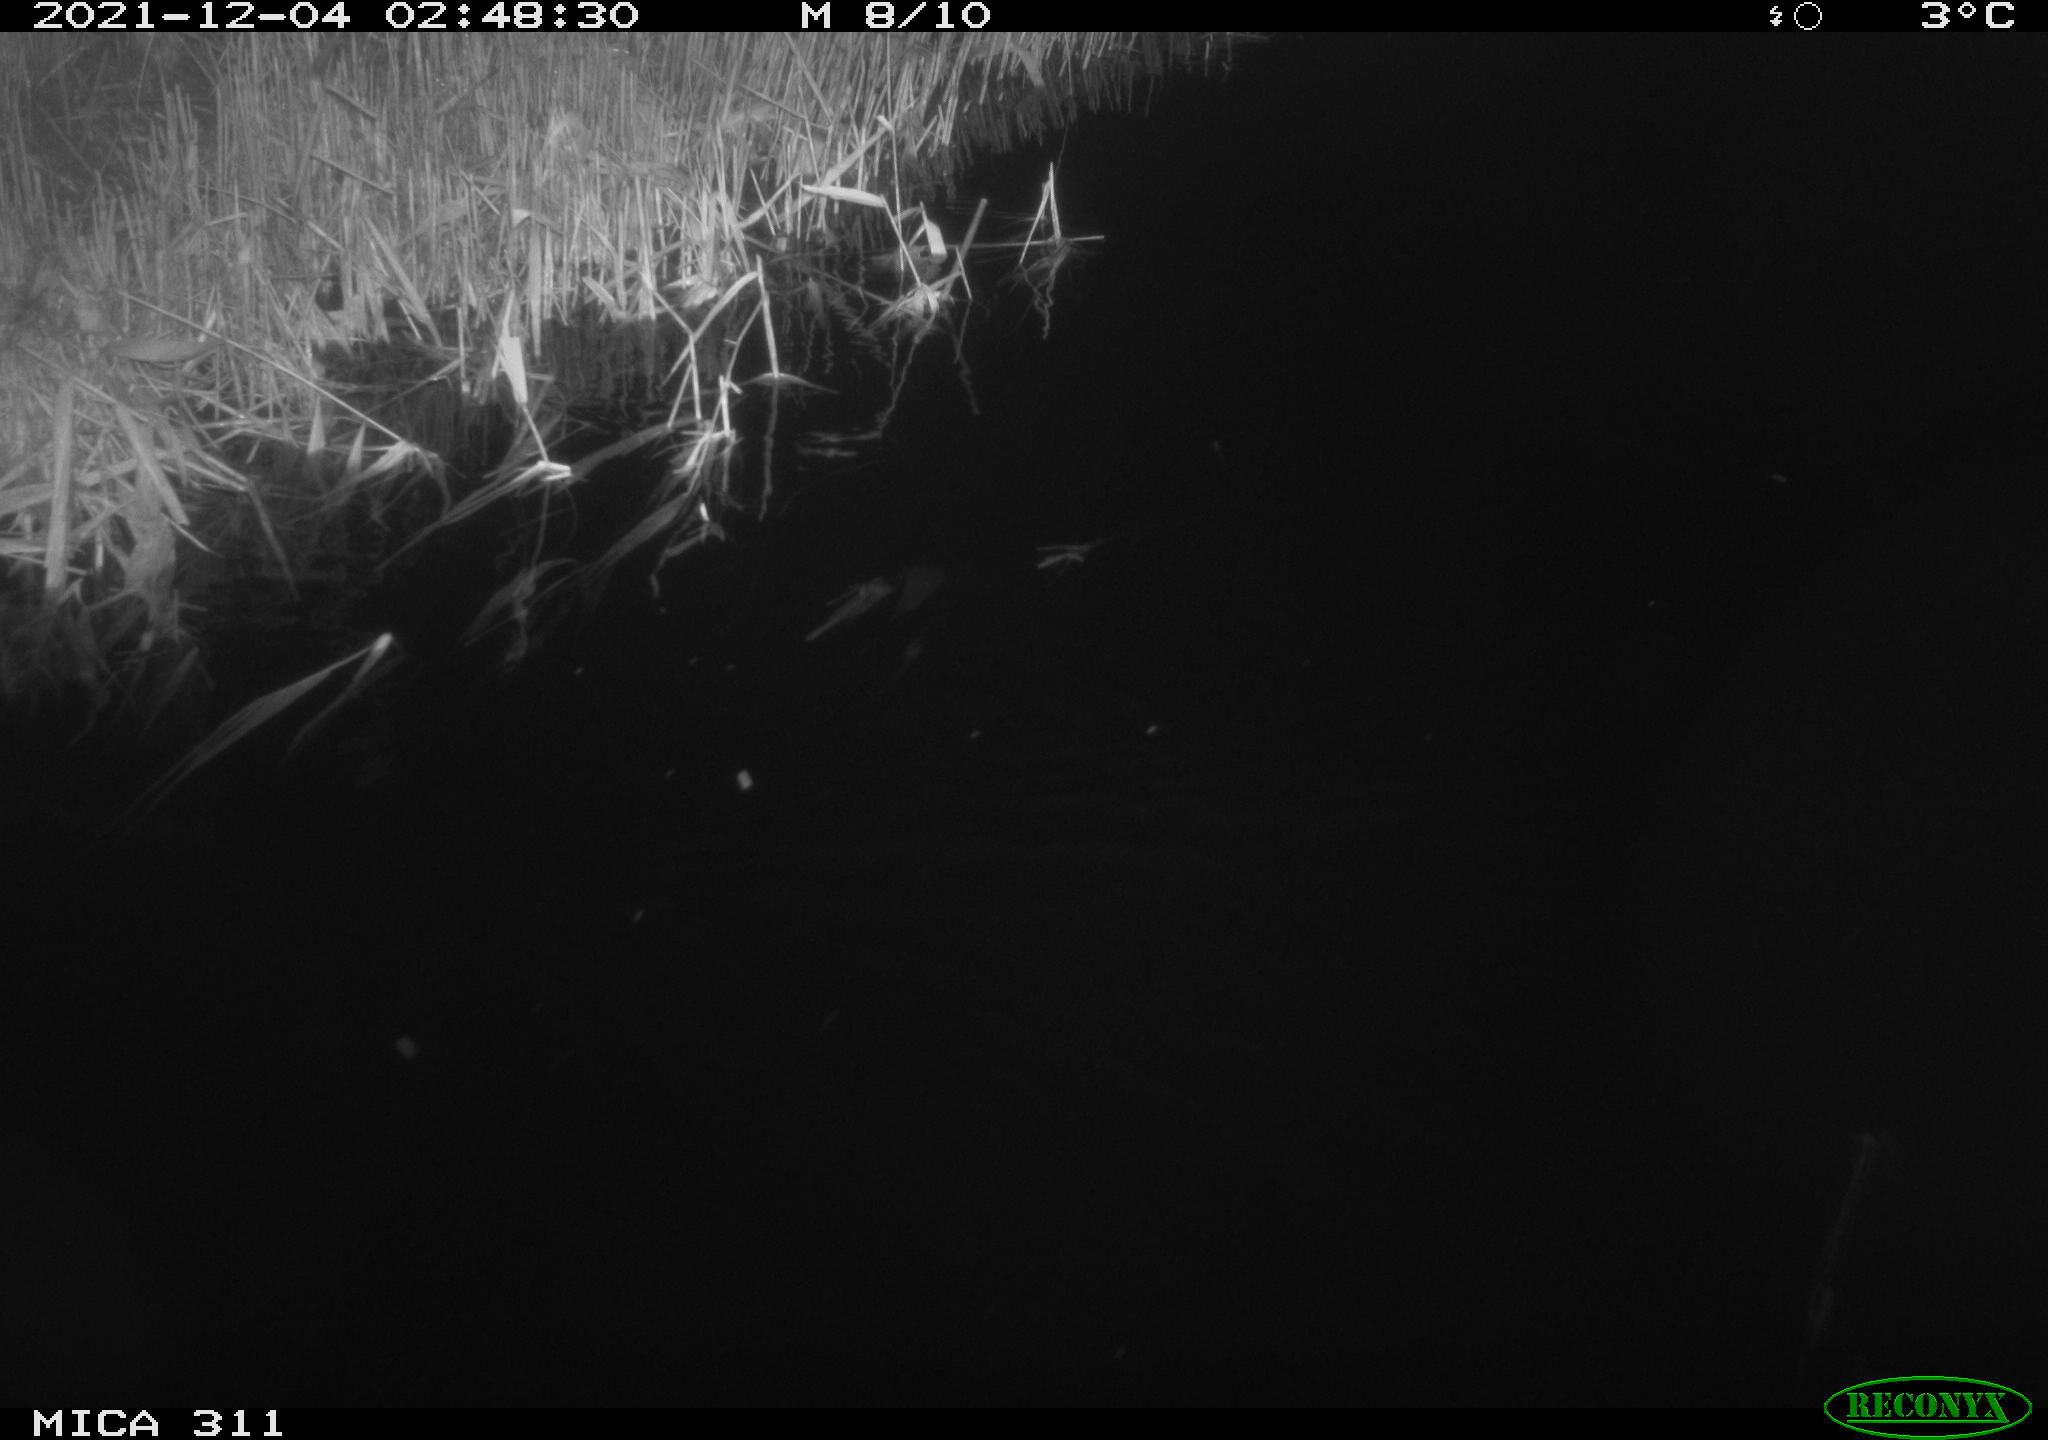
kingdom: Animalia
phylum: Chordata
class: Mammalia
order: Rodentia
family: Muridae
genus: Rattus
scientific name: Rattus norvegicus
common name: Brown rat
